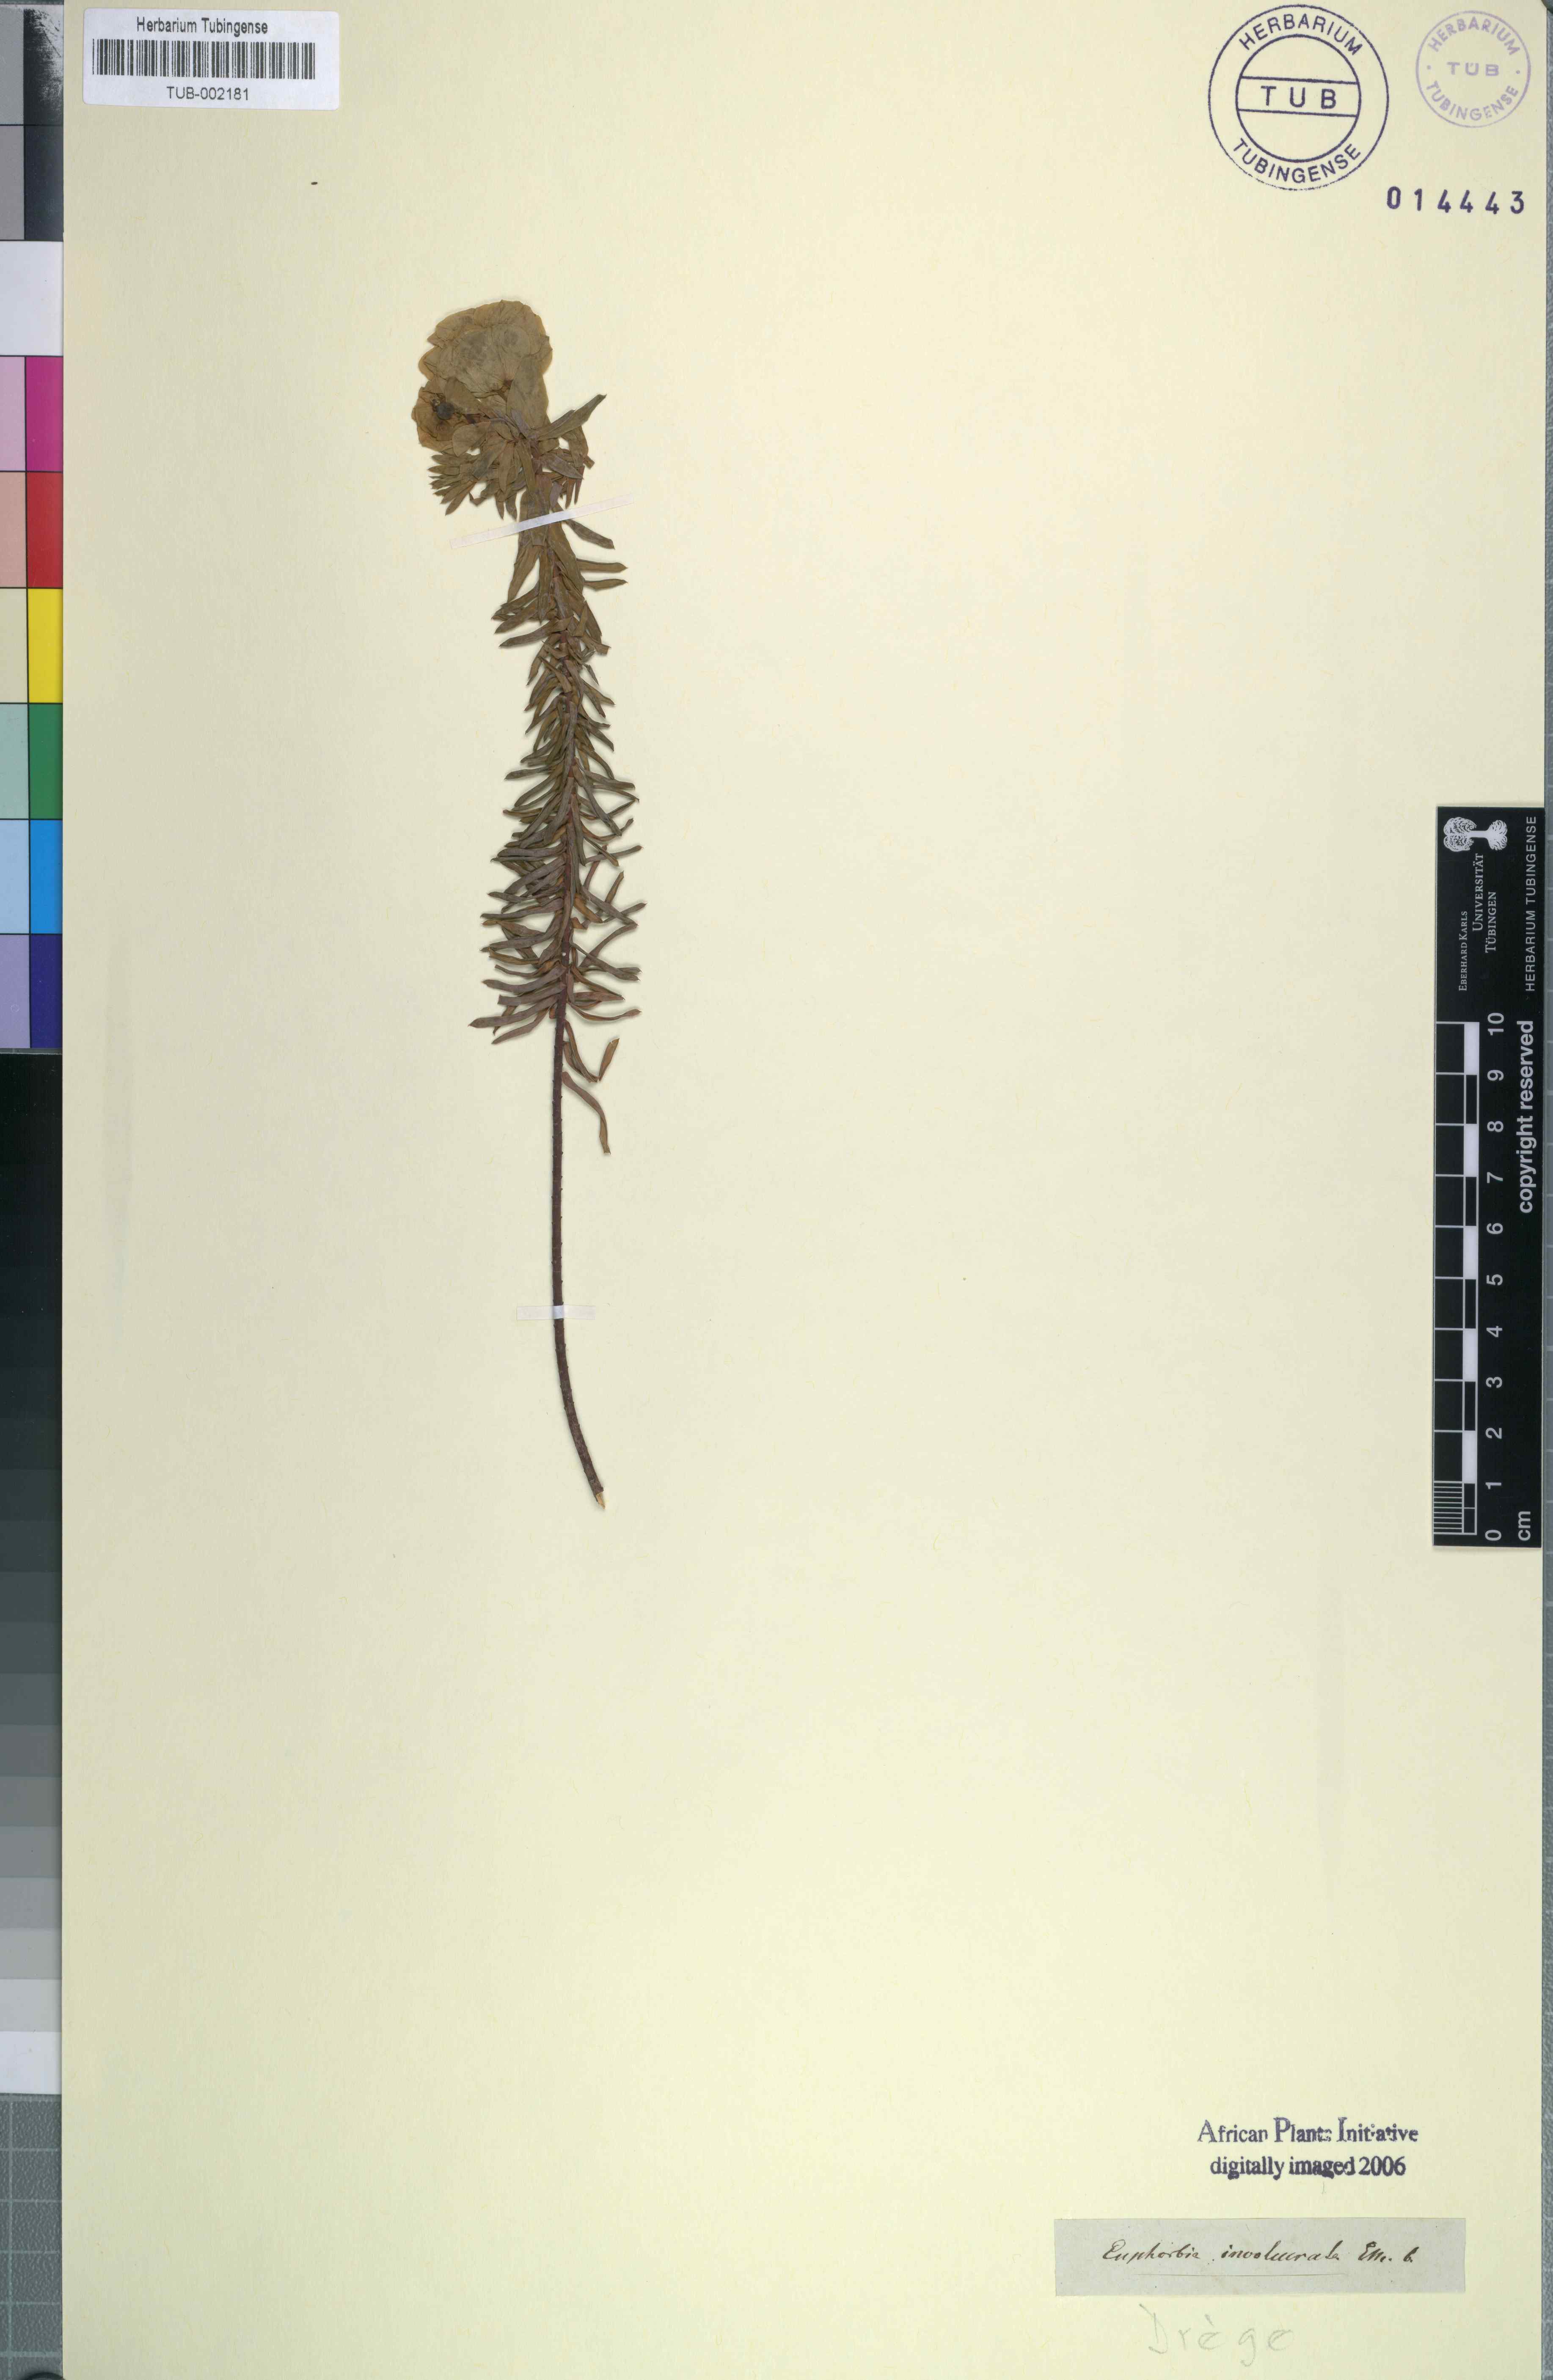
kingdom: Plantae
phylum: Tracheophyta
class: Magnoliopsida
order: Malpighiales
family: Euphorbiaceae
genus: Euphorbia
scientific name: Euphorbia indica
